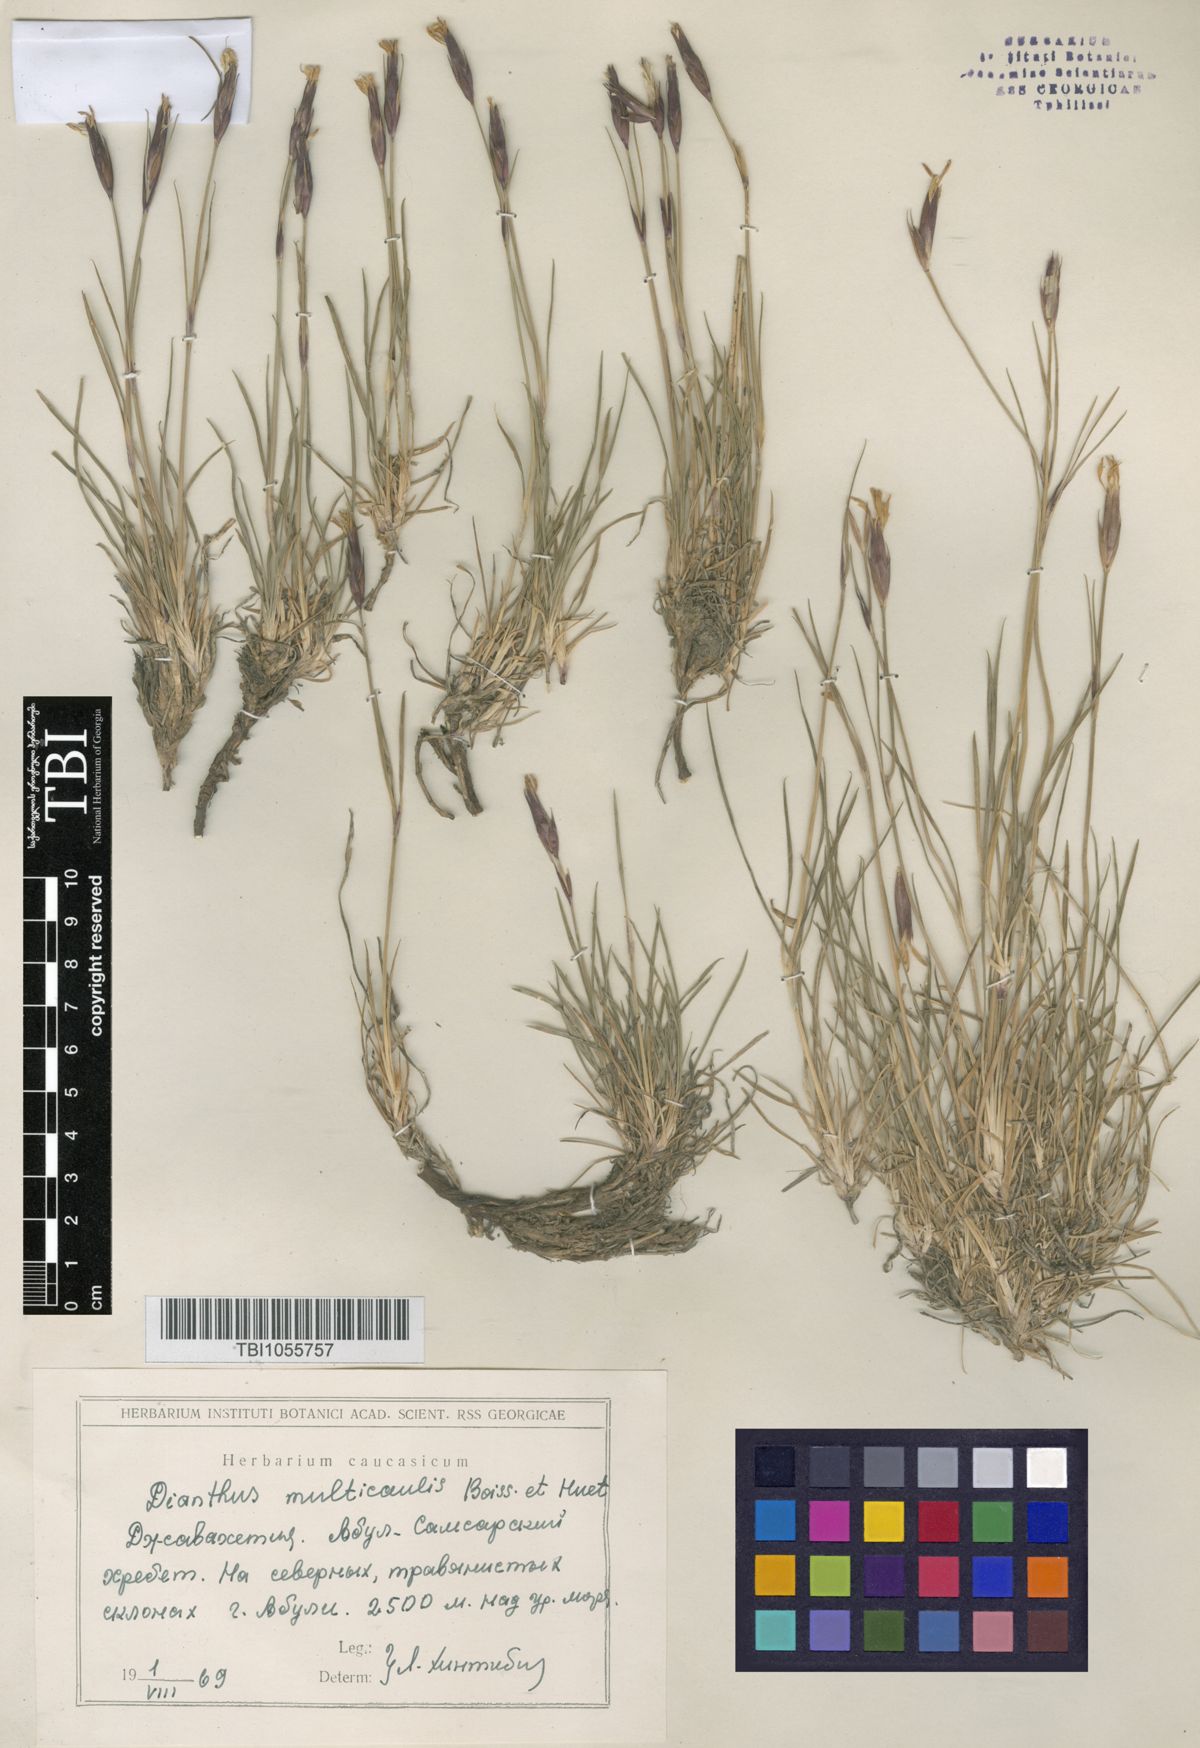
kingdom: Plantae
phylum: Tracheophyta
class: Magnoliopsida
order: Caryophyllales
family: Caryophyllaceae
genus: Dianthus
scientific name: Dianthus cretaceus
